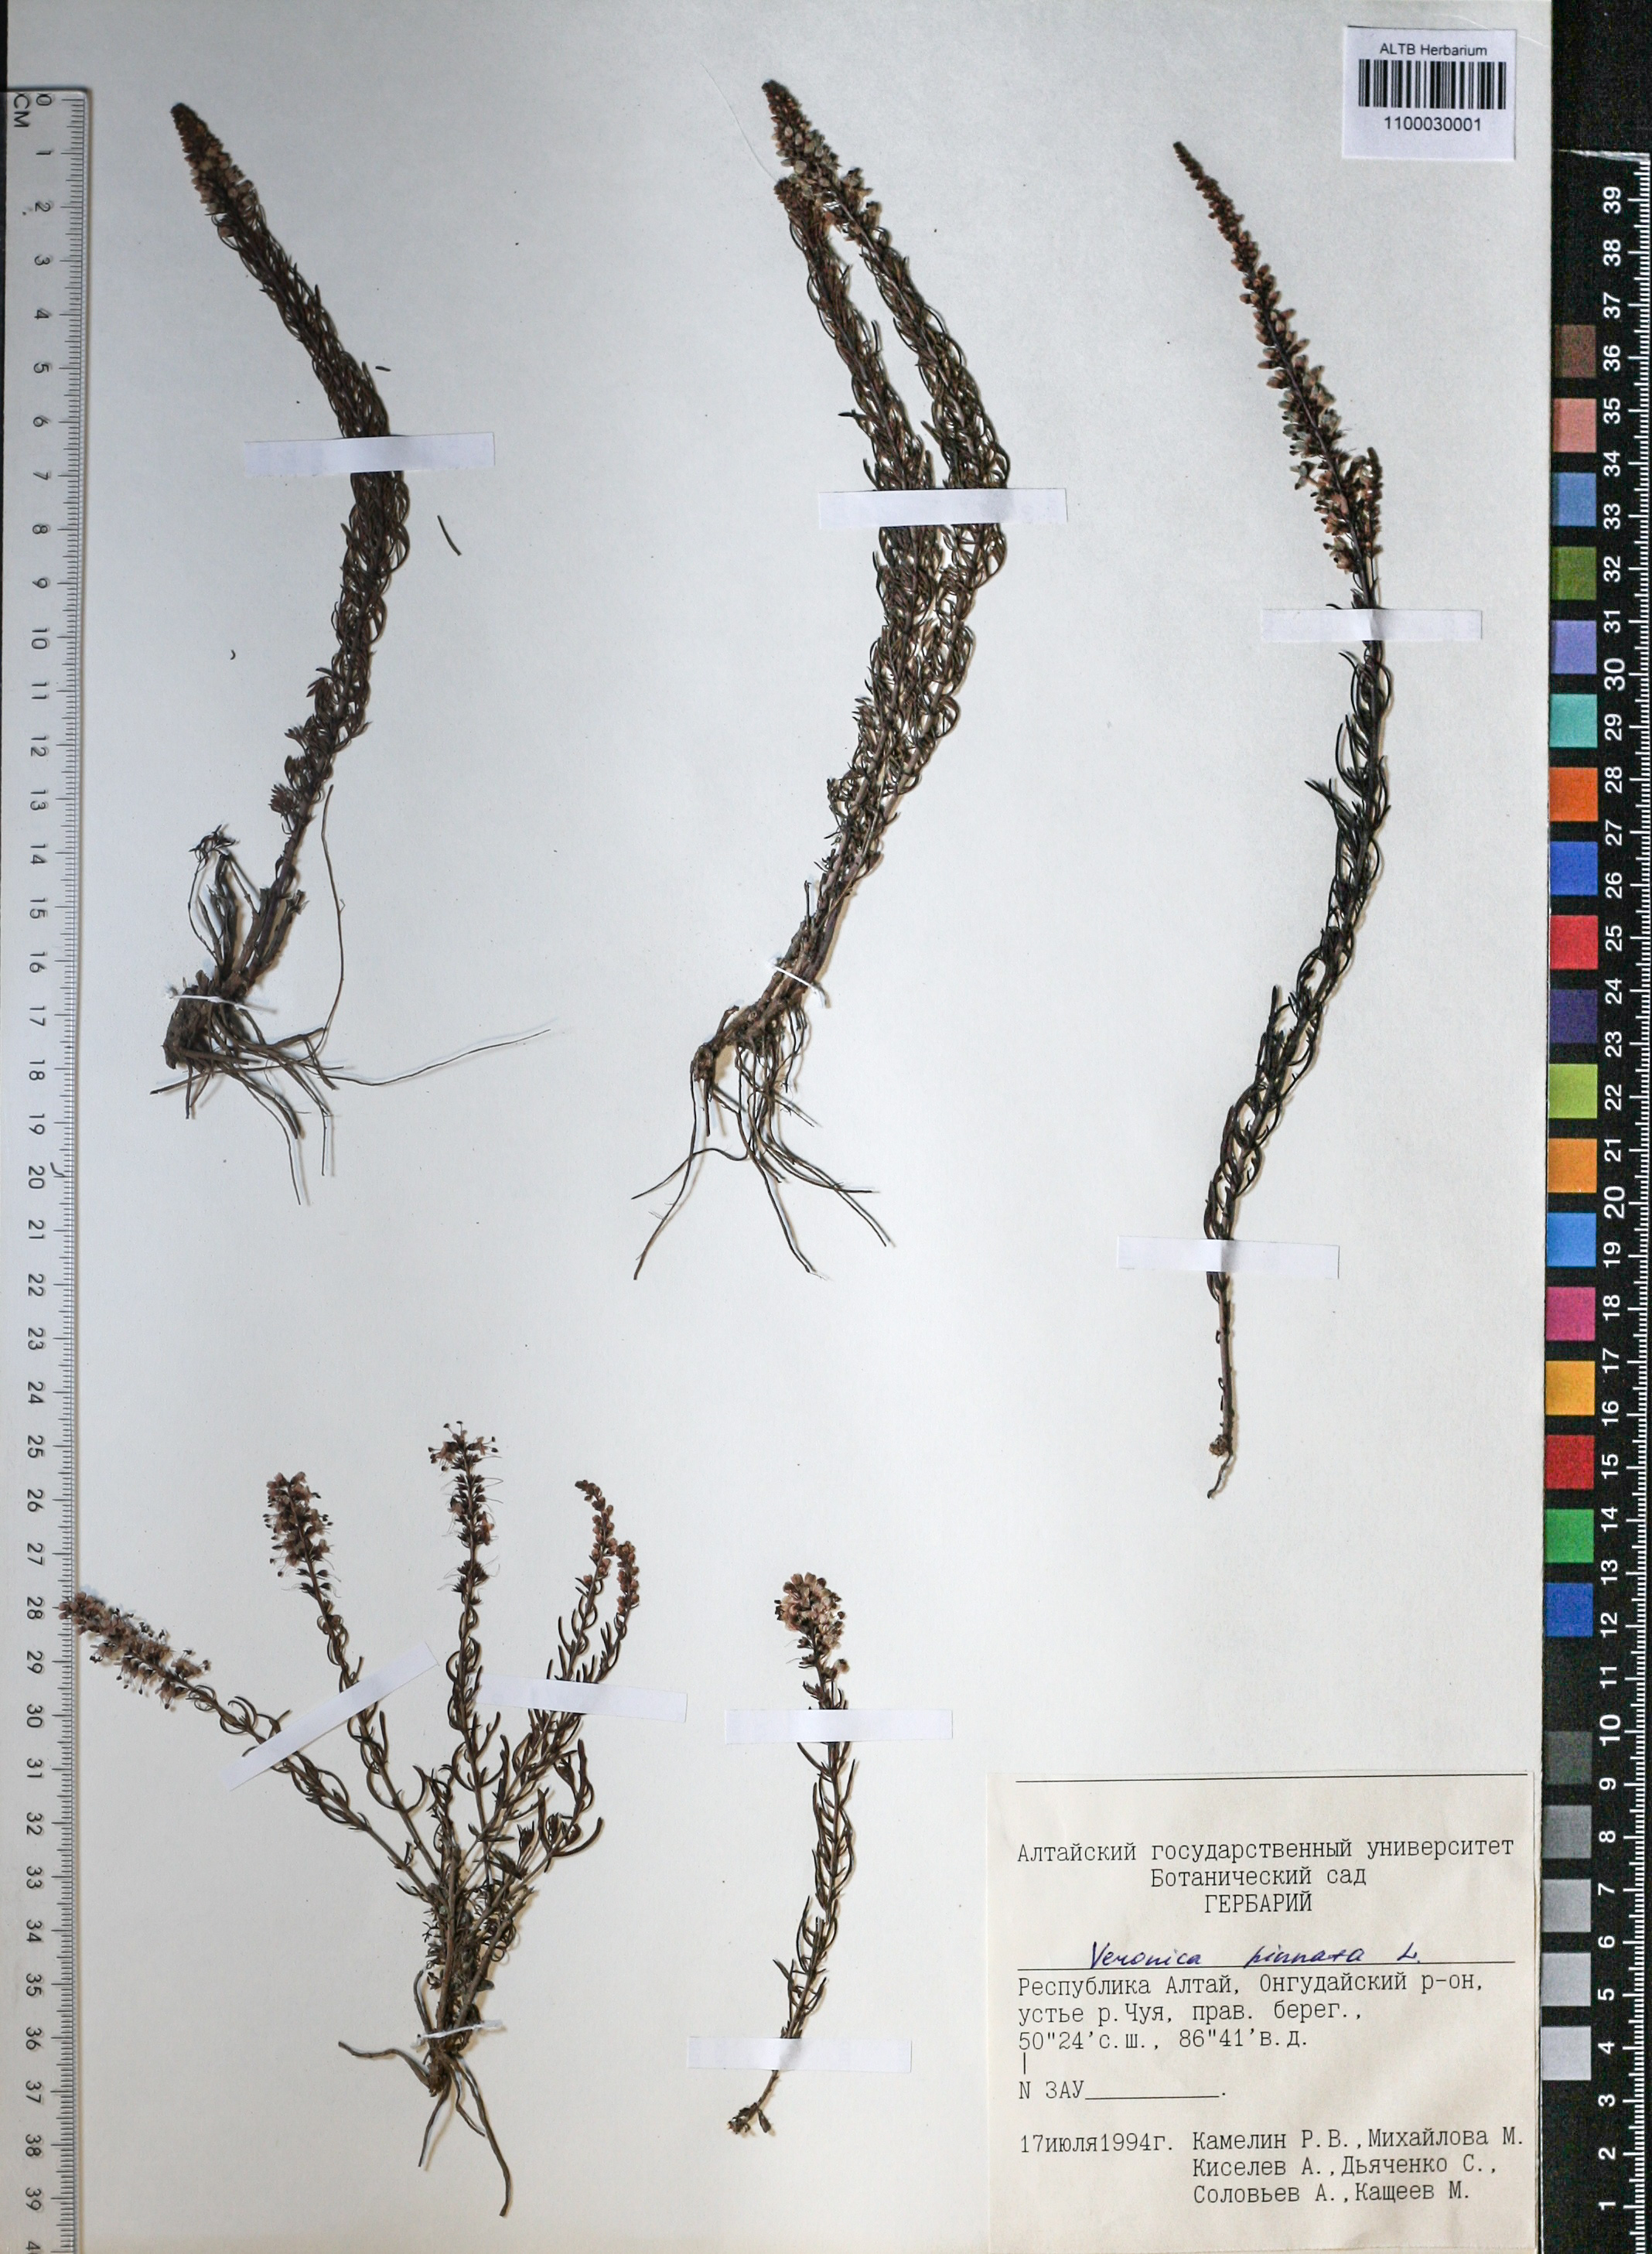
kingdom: Plantae
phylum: Tracheophyta
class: Magnoliopsida
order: Lamiales
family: Plantaginaceae
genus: Veronica
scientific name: Veronica pinnata
